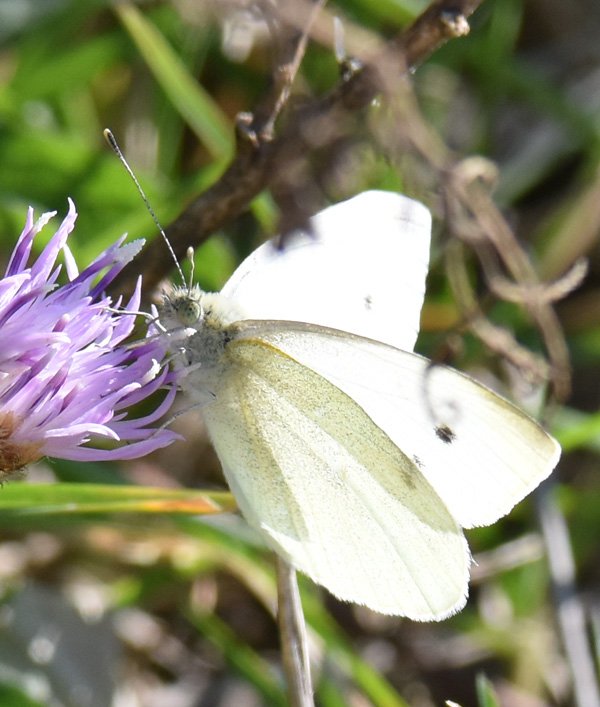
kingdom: Animalia
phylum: Arthropoda
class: Insecta
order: Lepidoptera
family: Pieridae
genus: Pieris
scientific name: Pieris rapae
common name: Cabbage White
